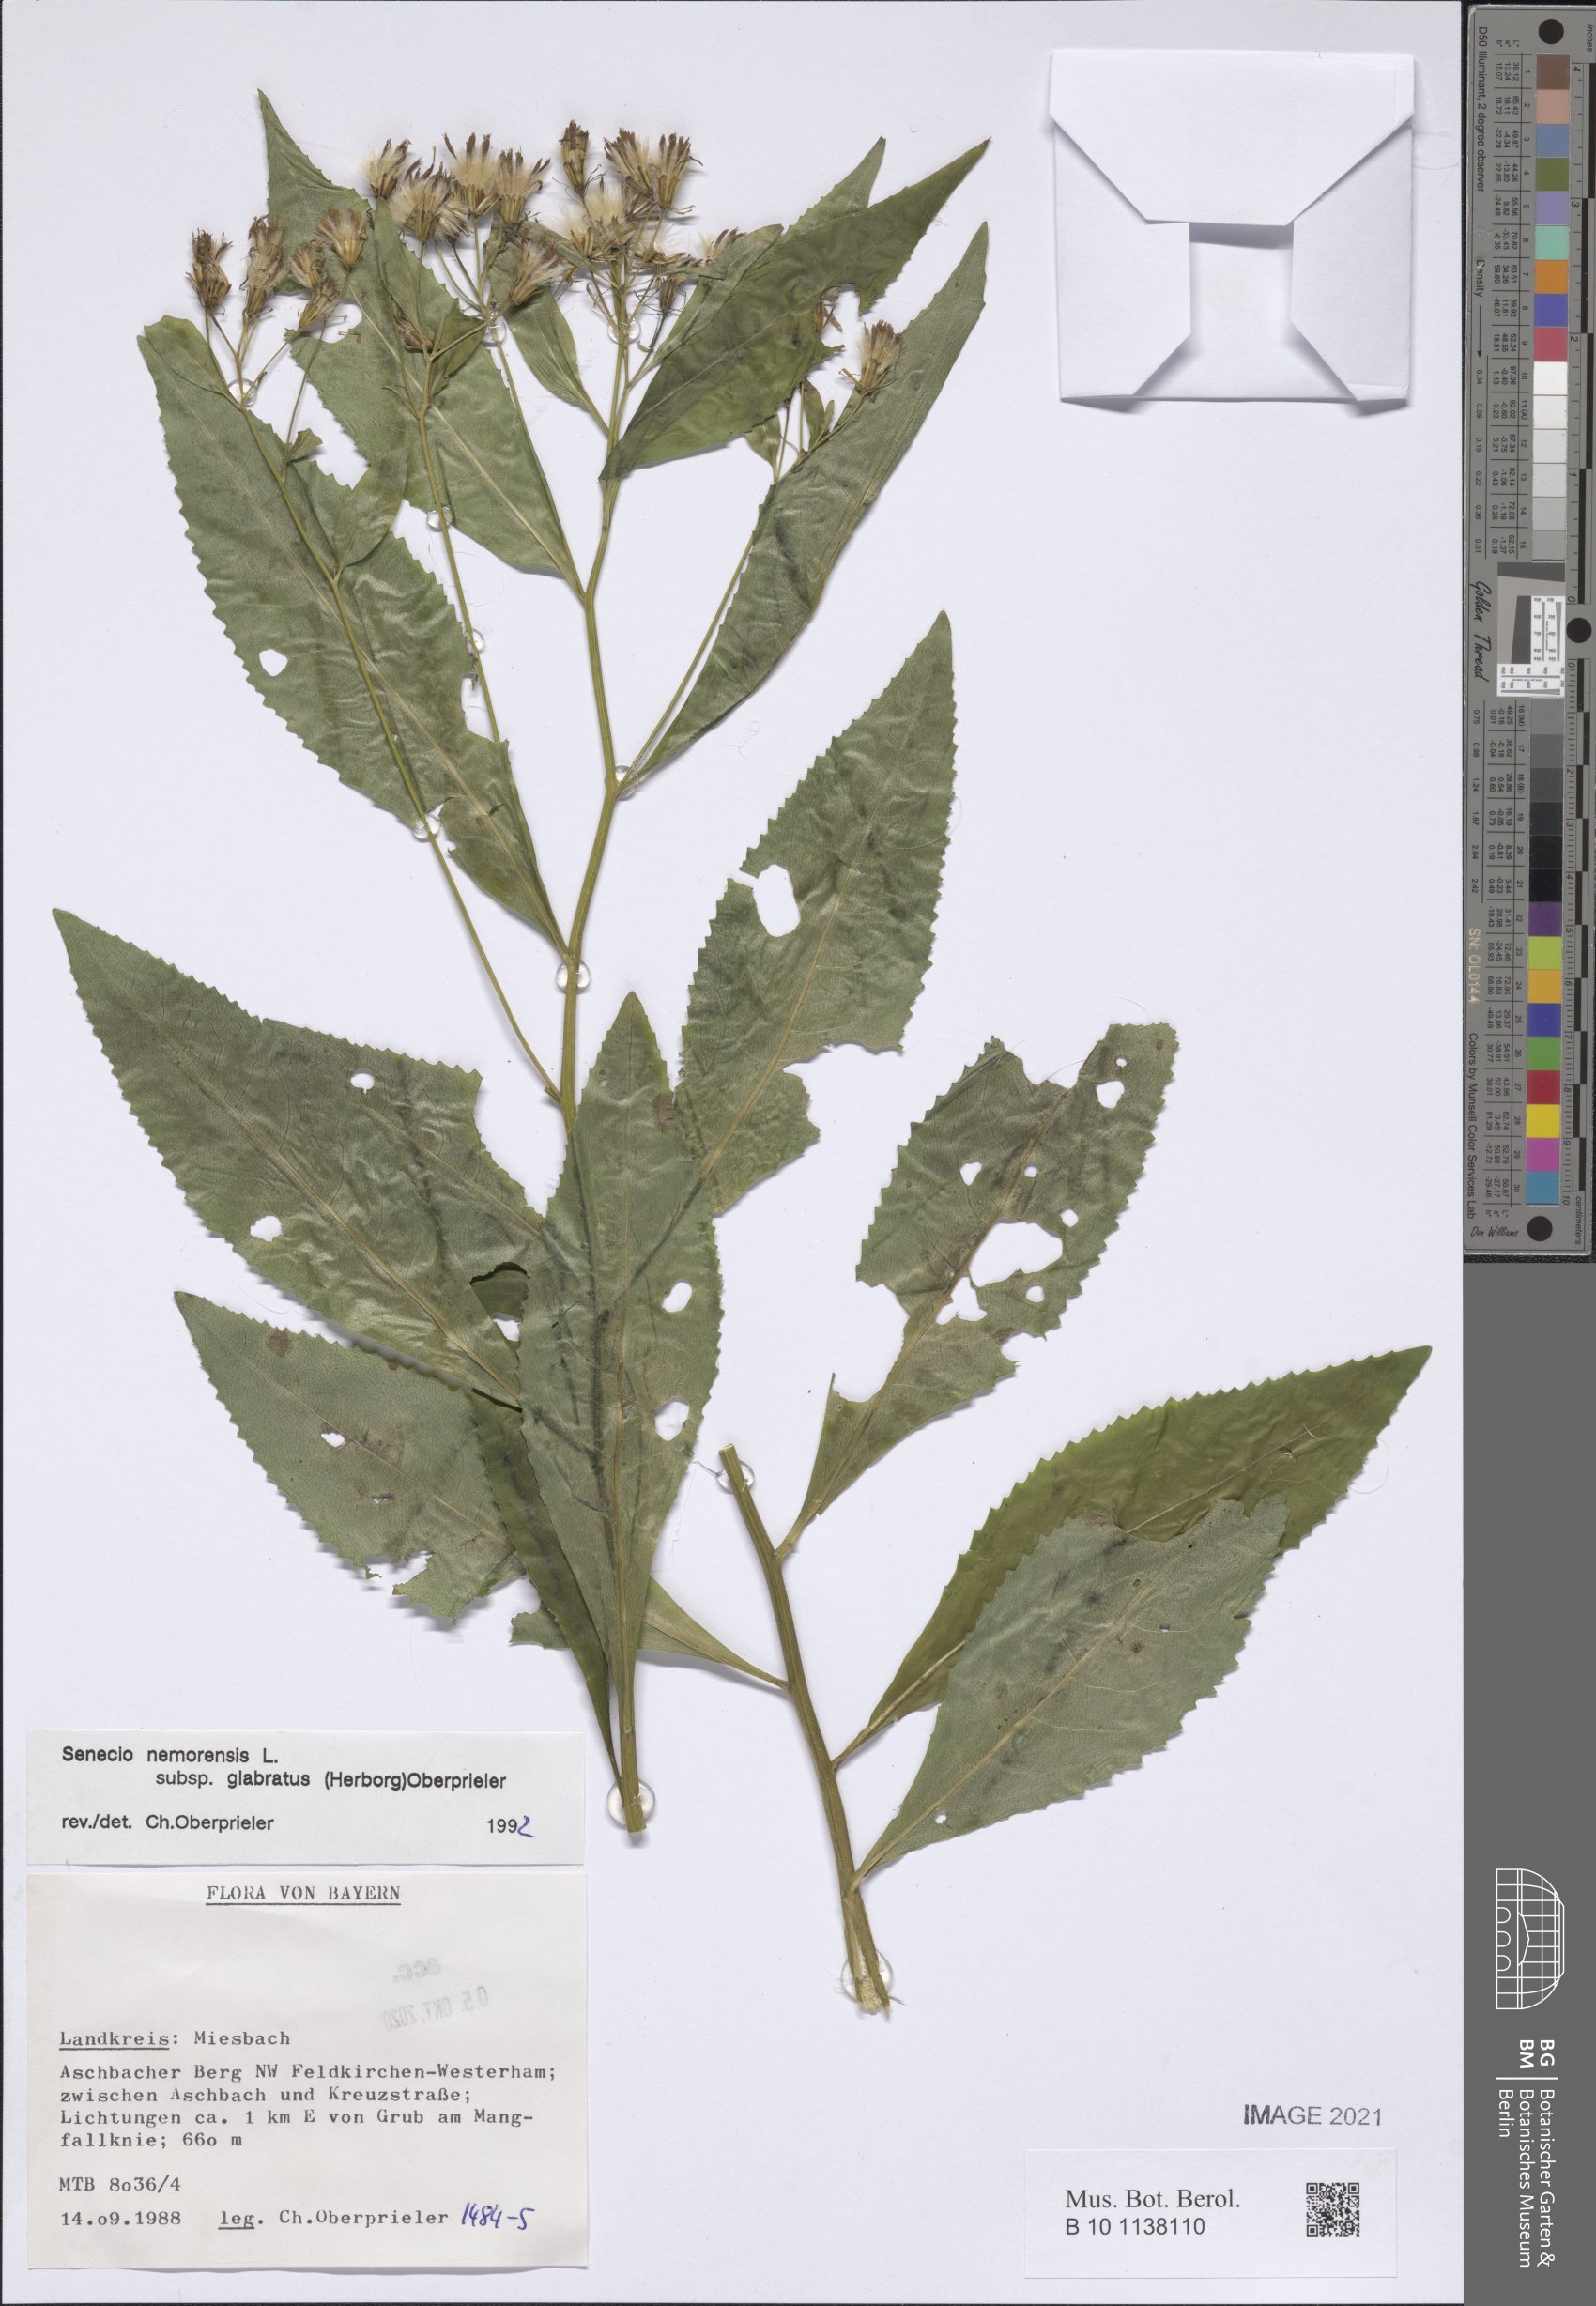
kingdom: Plantae
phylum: Tracheophyta
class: Magnoliopsida
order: Asterales
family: Asteraceae
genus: Senecio
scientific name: Senecio germanicus
